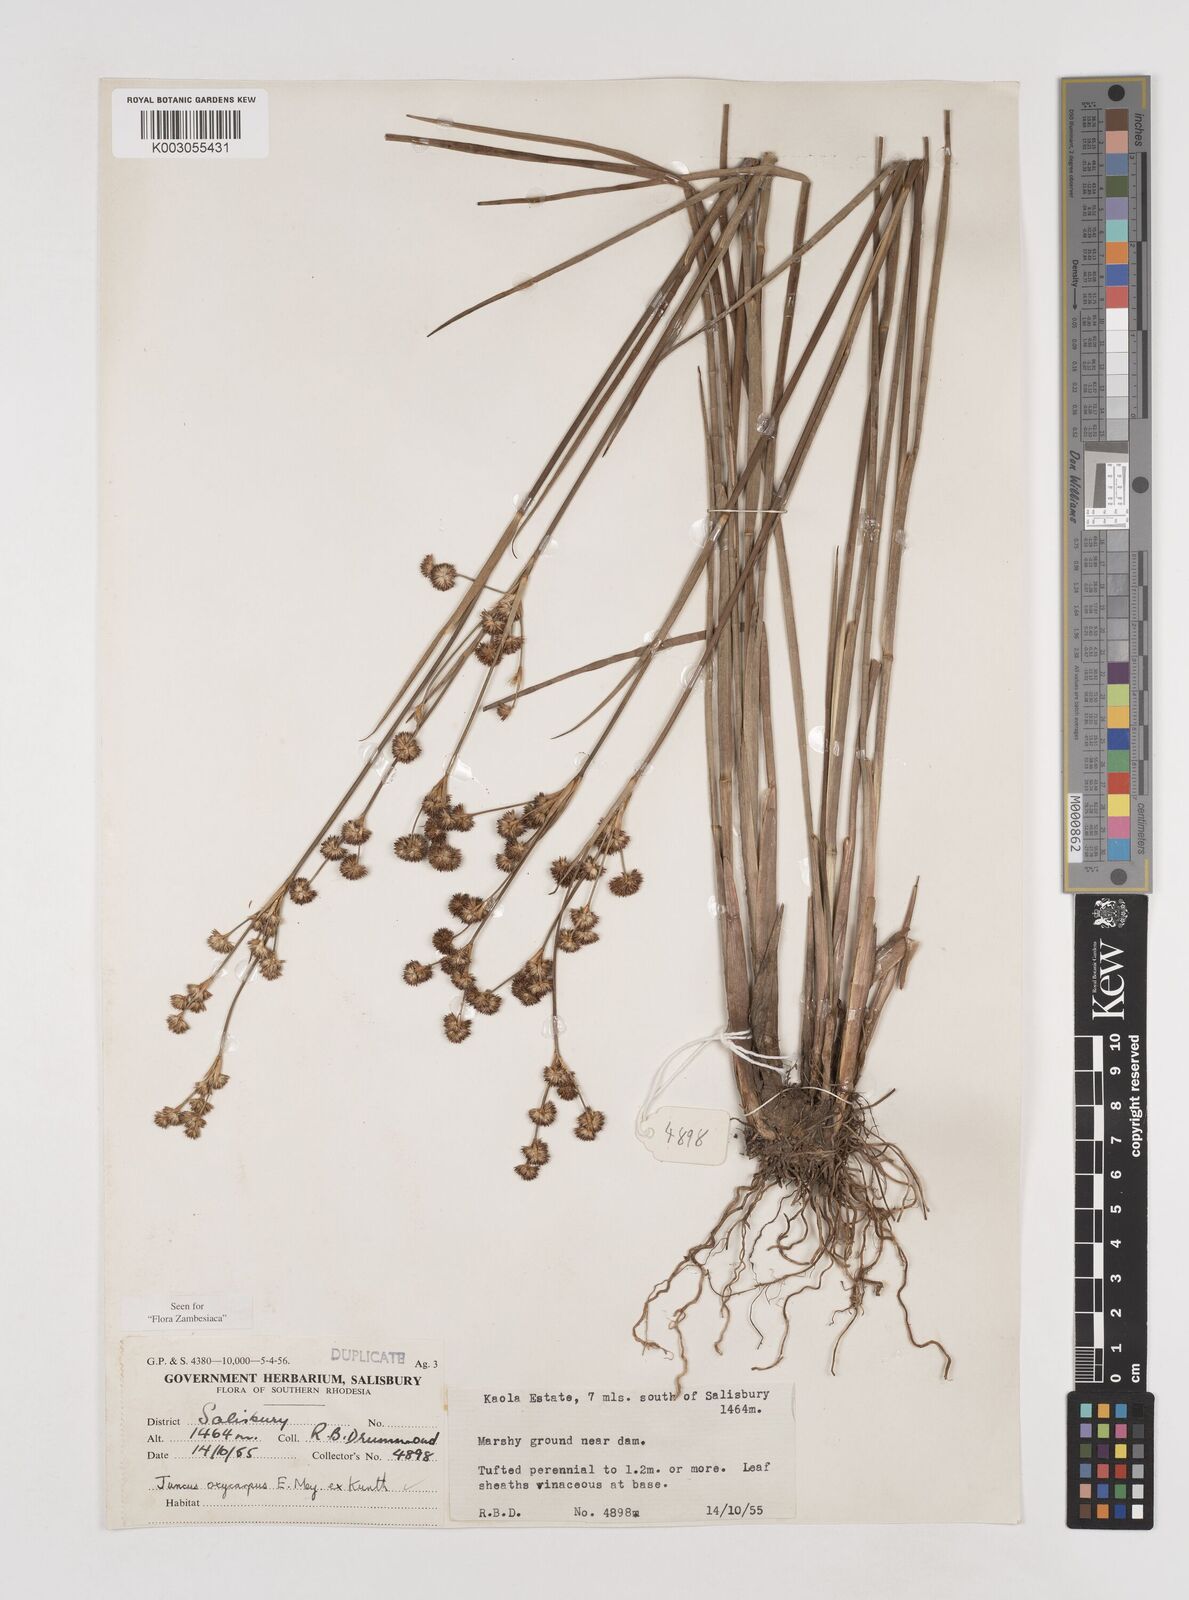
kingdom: Plantae
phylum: Tracheophyta
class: Liliopsida
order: Poales
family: Juncaceae
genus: Juncus
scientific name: Juncus oxycarpus
